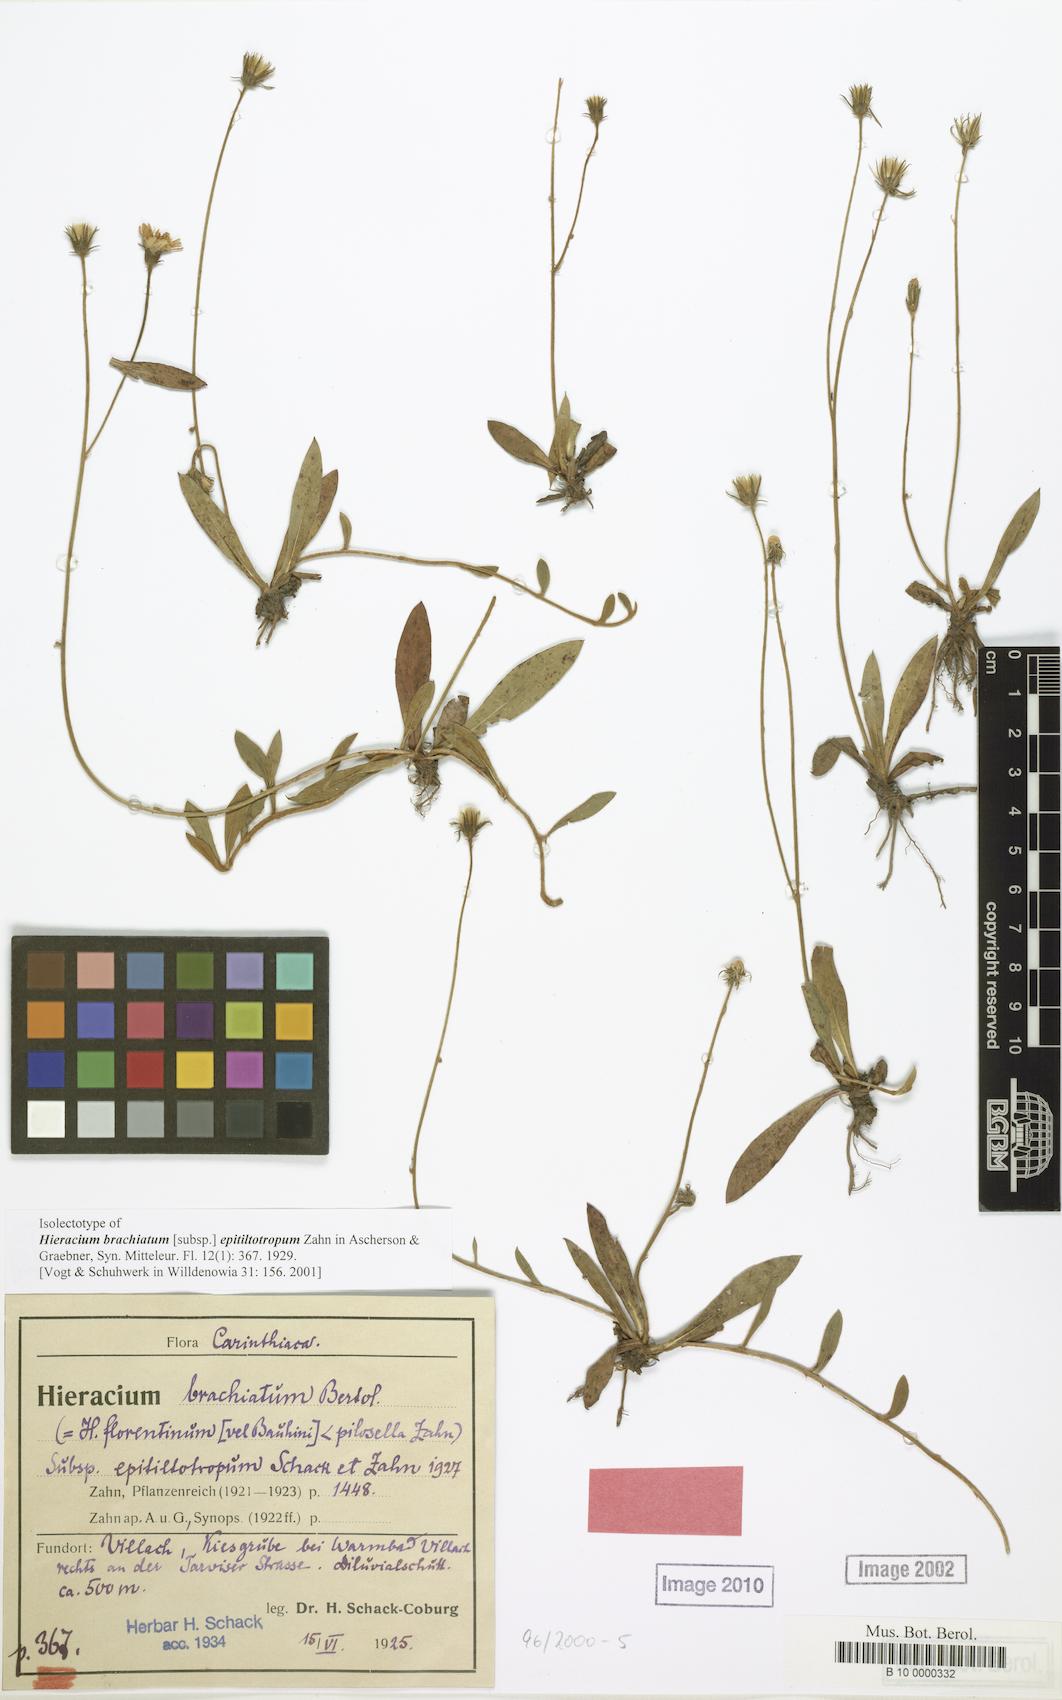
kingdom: Plantae
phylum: Tracheophyta
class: Magnoliopsida
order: Asterales
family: Asteraceae
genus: Pilosella
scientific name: Pilosella acutifolia
